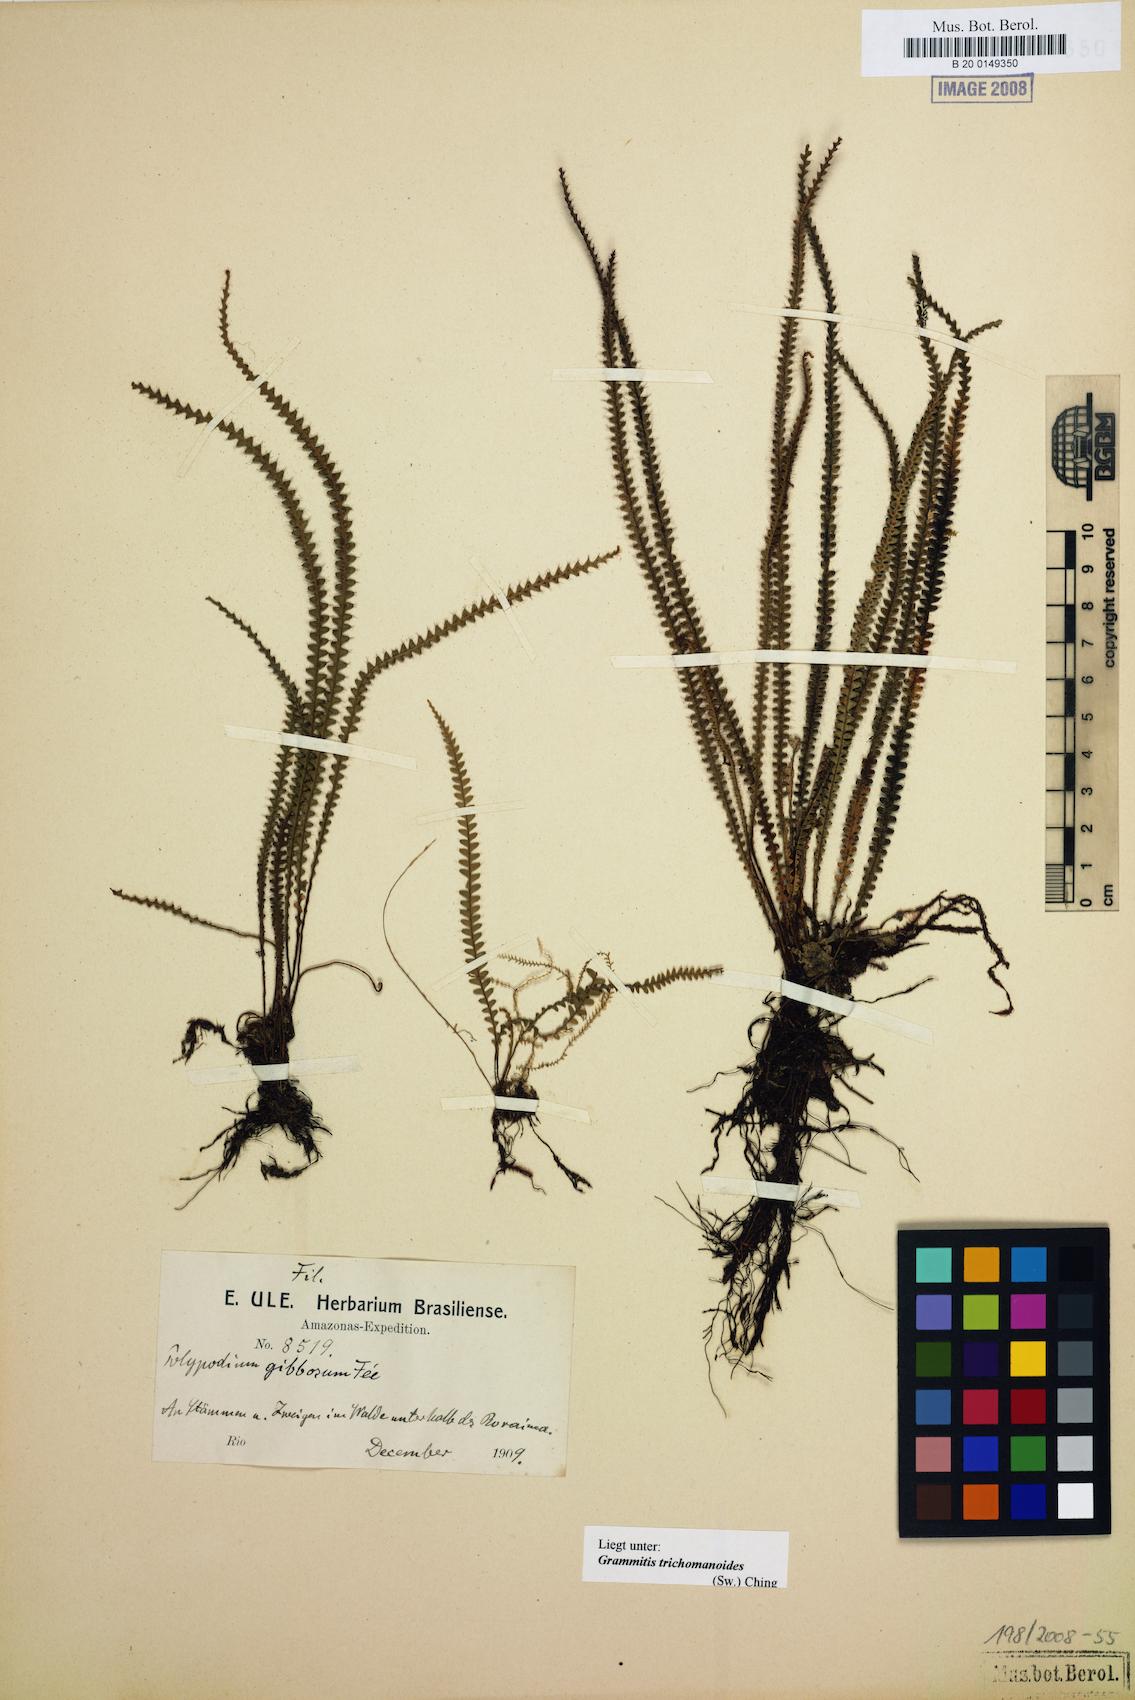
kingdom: Plantae
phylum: Tracheophyta
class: Polypodiopsida
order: Polypodiales
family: Polypodiaceae
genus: Moranopteris
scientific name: Moranopteris caucana
